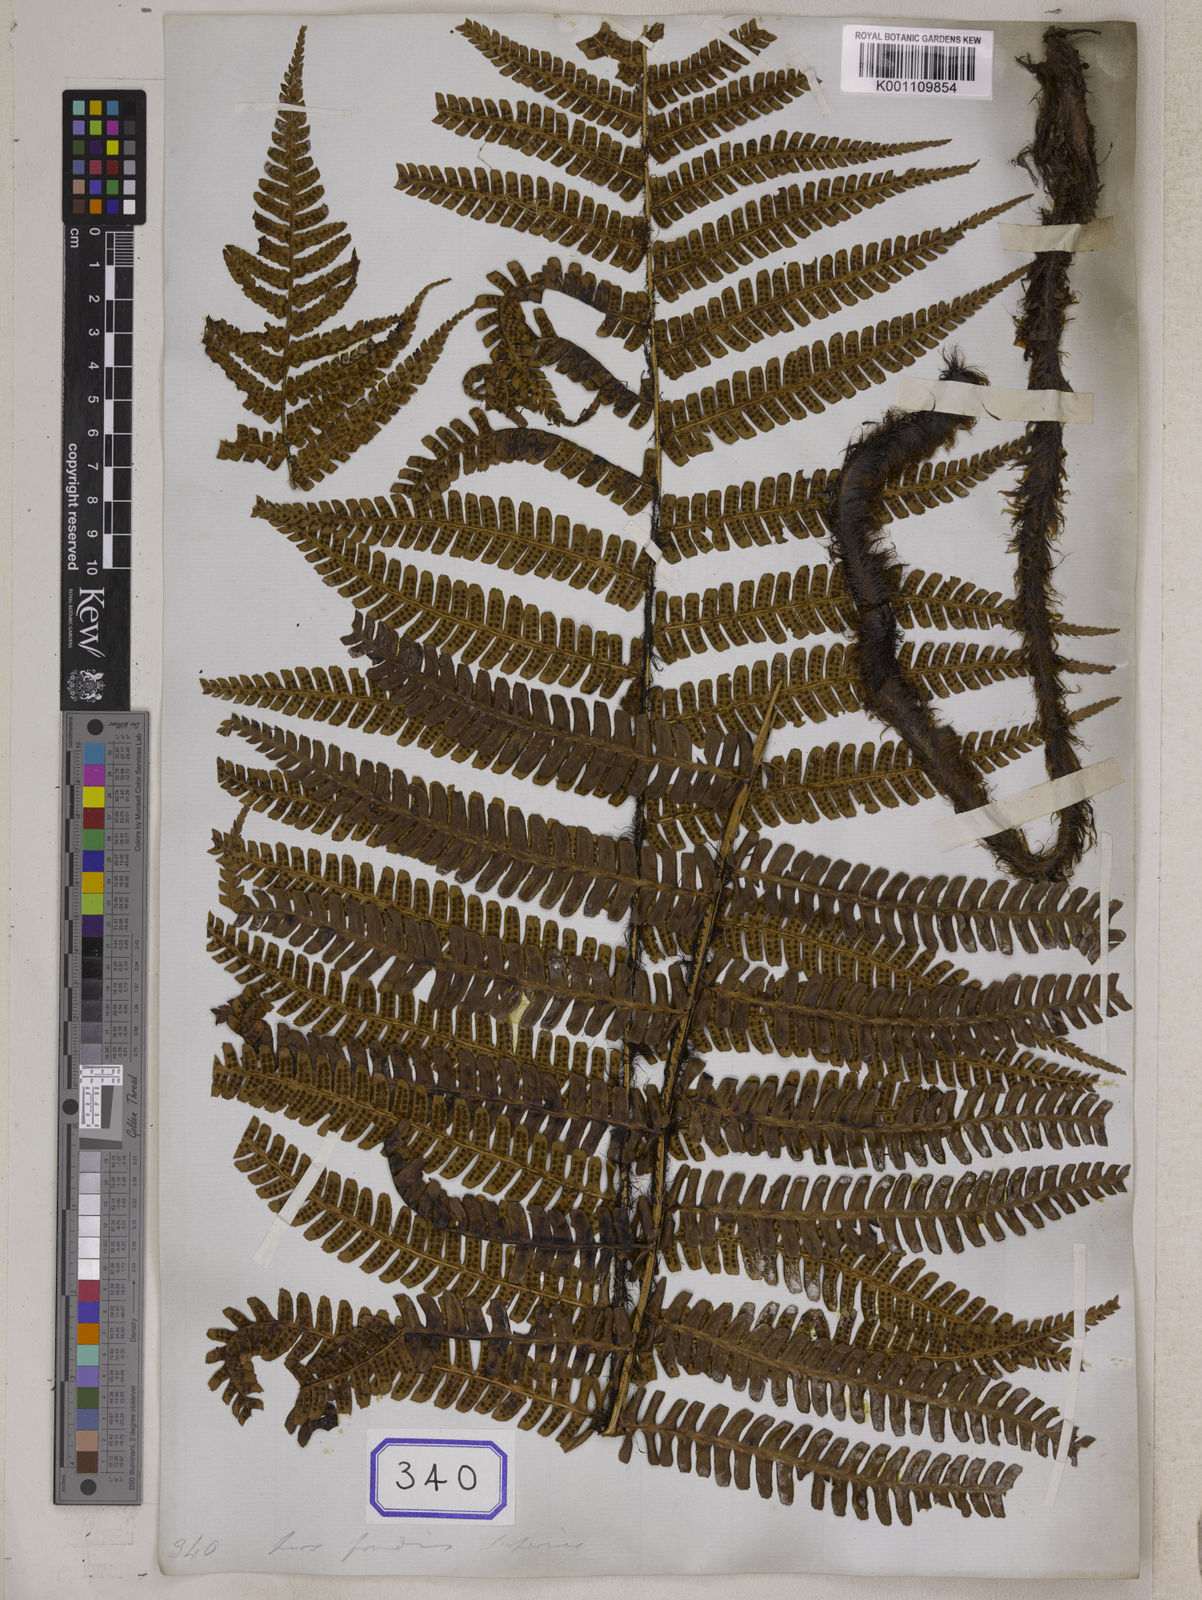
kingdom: Plantae
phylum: Tracheophyta
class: Polypodiopsida
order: Polypodiales
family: Dryopteridaceae
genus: Dryopteris
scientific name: Dryopteris wallichiana
